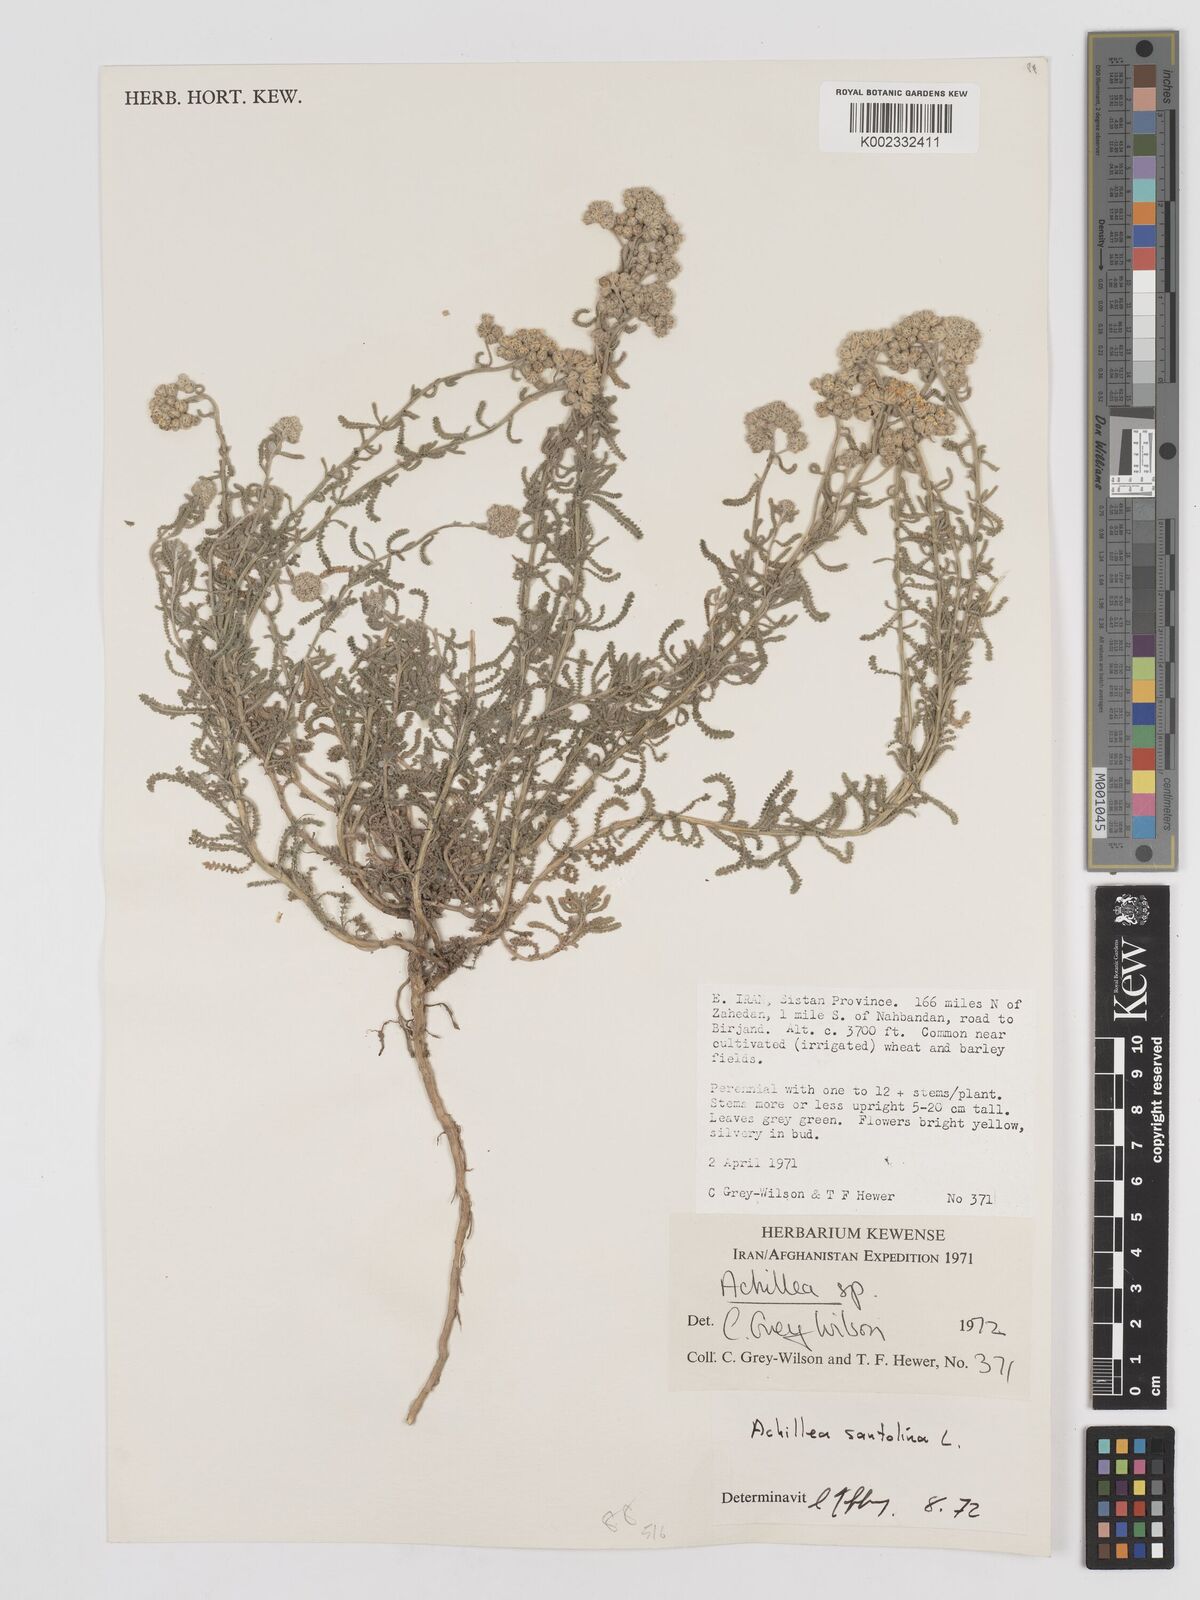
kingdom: Plantae
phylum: Tracheophyta
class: Magnoliopsida
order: Asterales
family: Asteraceae
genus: Achillea
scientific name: Achillea tenuifolia
